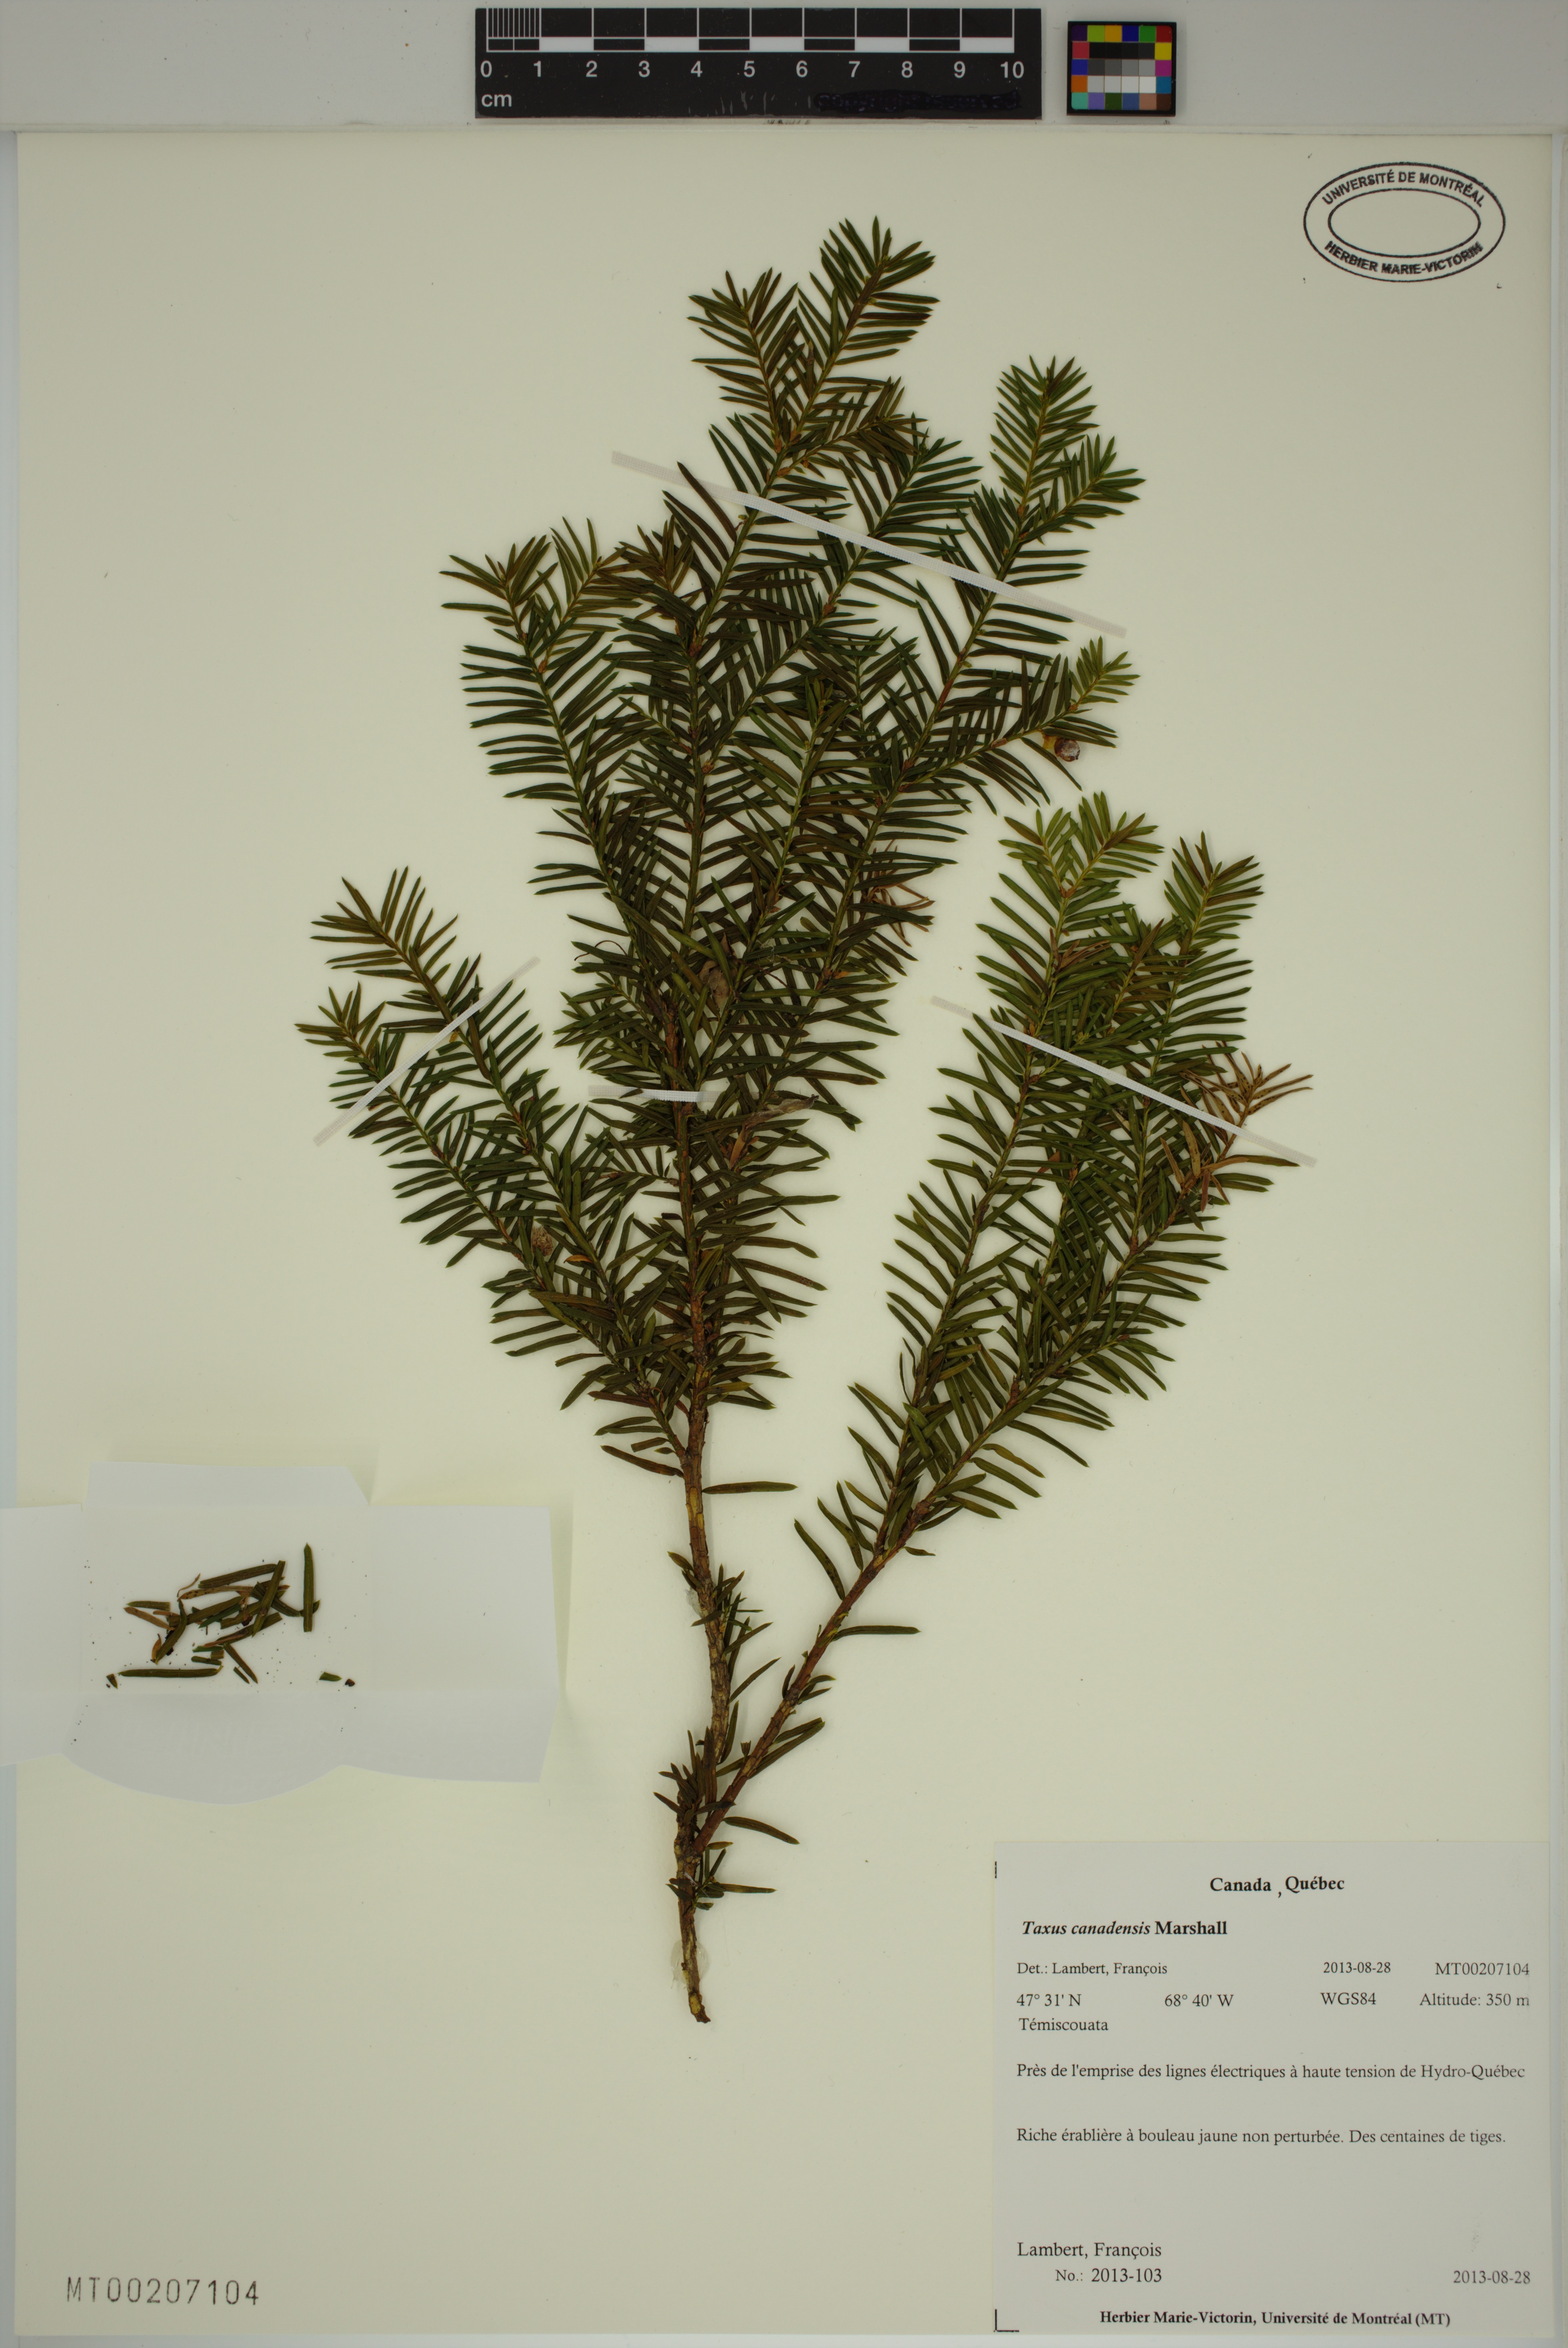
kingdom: Plantae
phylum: Tracheophyta
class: Pinopsida
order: Pinales
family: Taxaceae
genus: Taxus
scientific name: Taxus canadensis
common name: American yew
